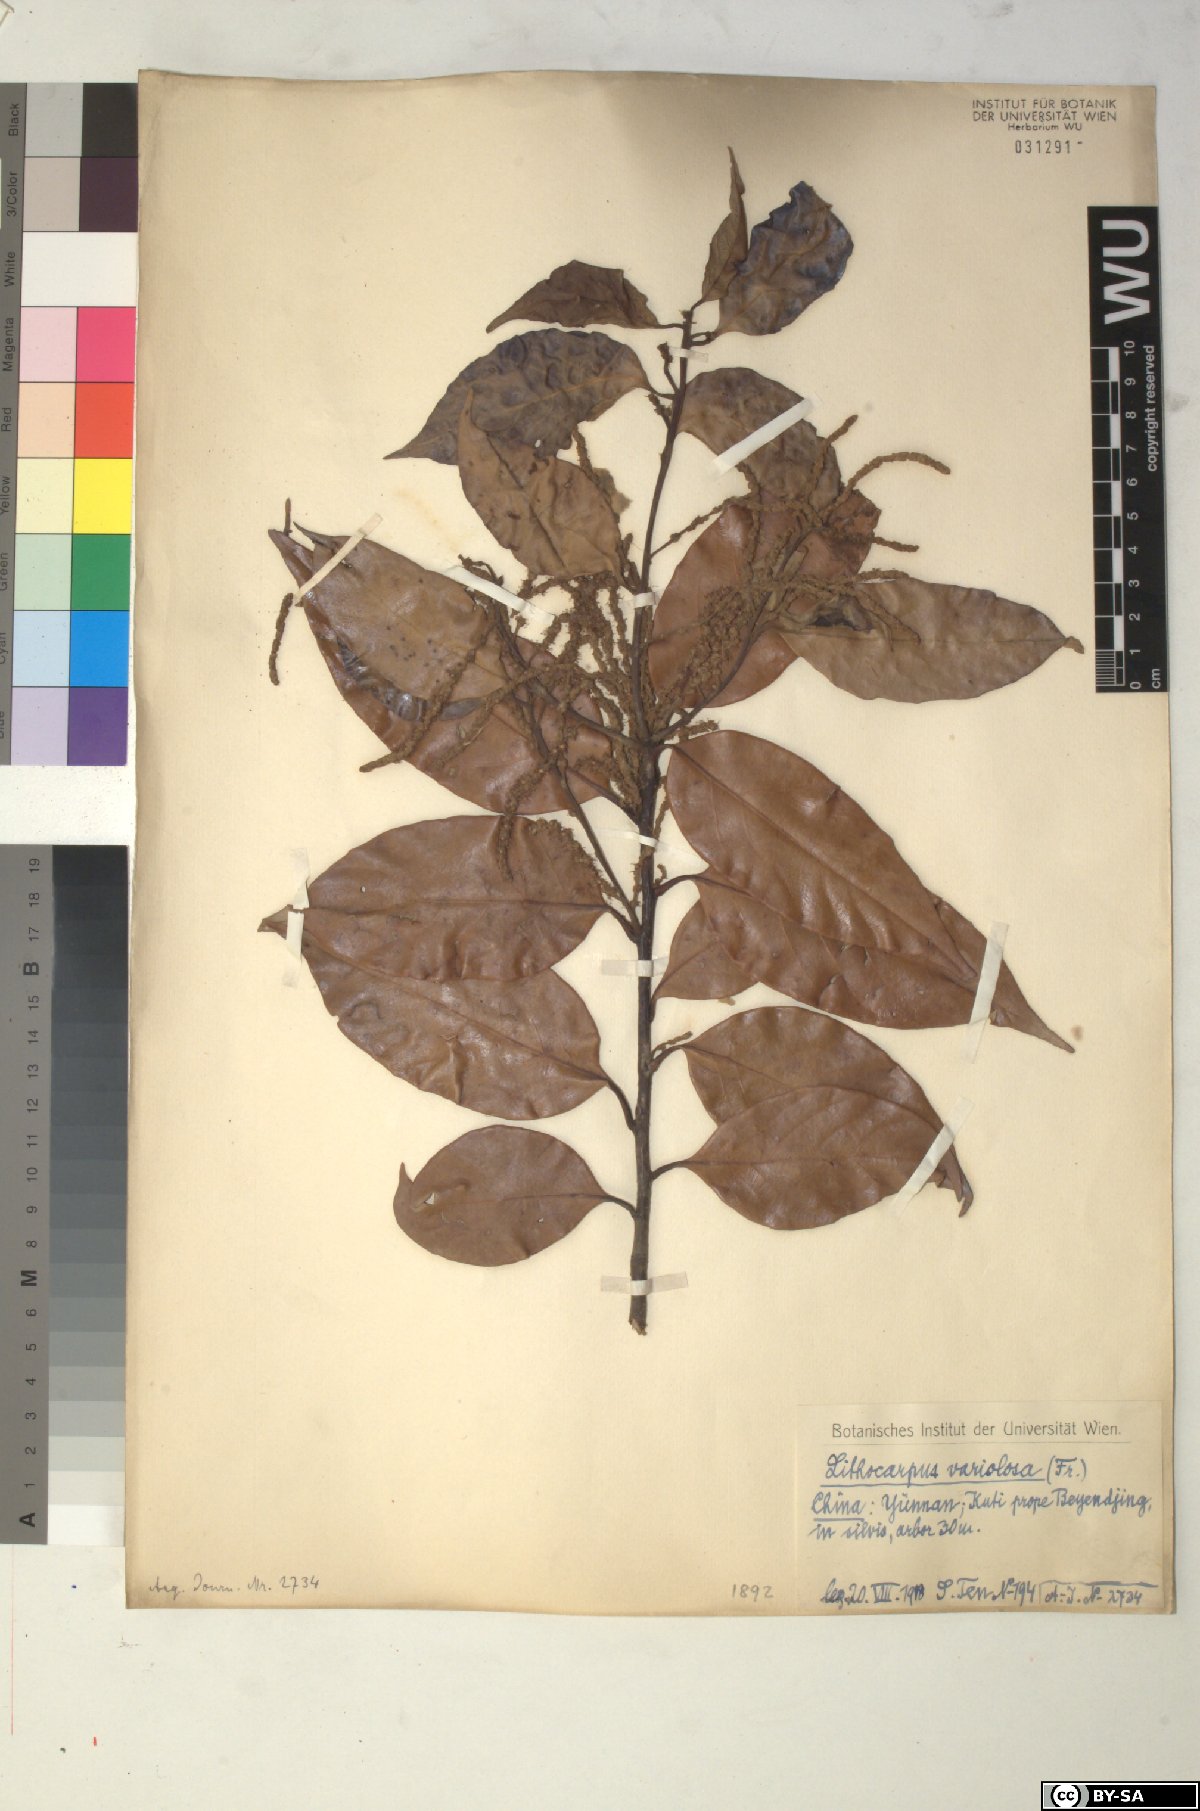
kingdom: Plantae
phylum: Tracheophyta
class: Magnoliopsida
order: Fagales
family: Fagaceae
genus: Lithocarpus
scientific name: Lithocarpus variolosus
